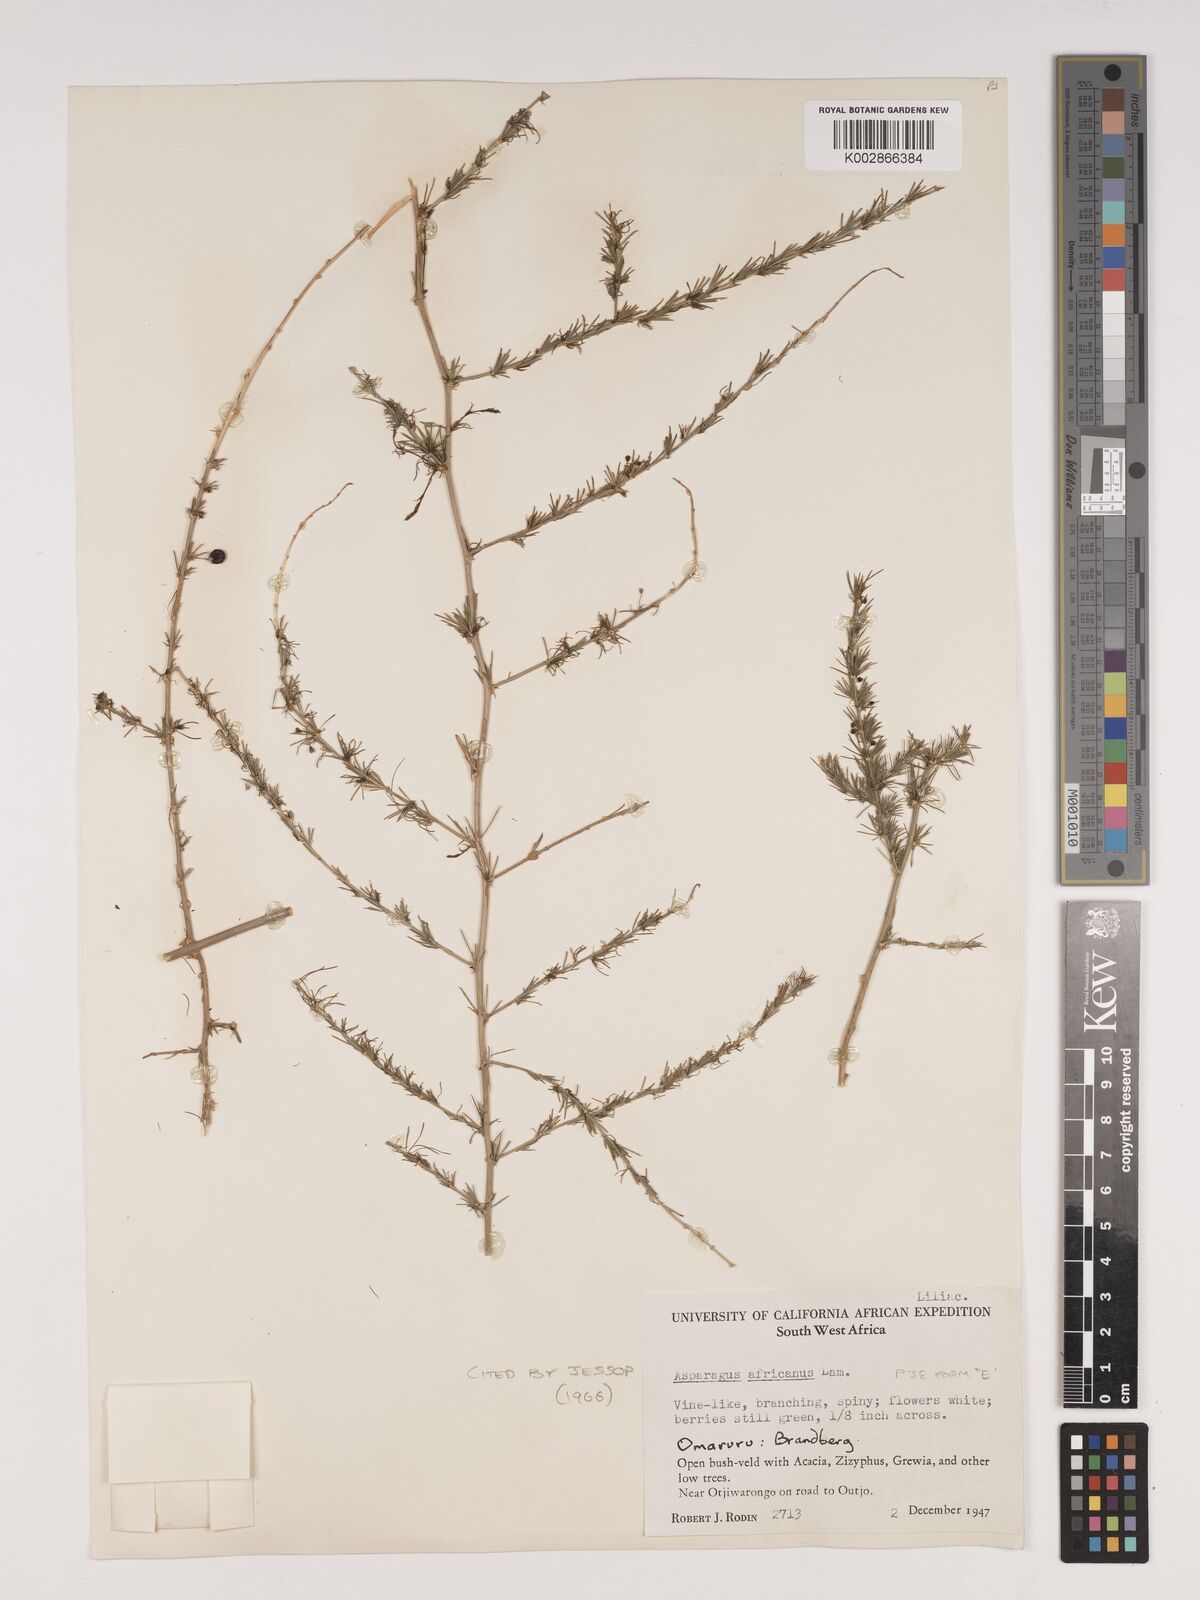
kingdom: Plantae
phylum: Tracheophyta
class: Liliopsida
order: Asparagales
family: Asparagaceae
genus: Asparagus
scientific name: Asparagus africanus
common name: Asparagus-fern
